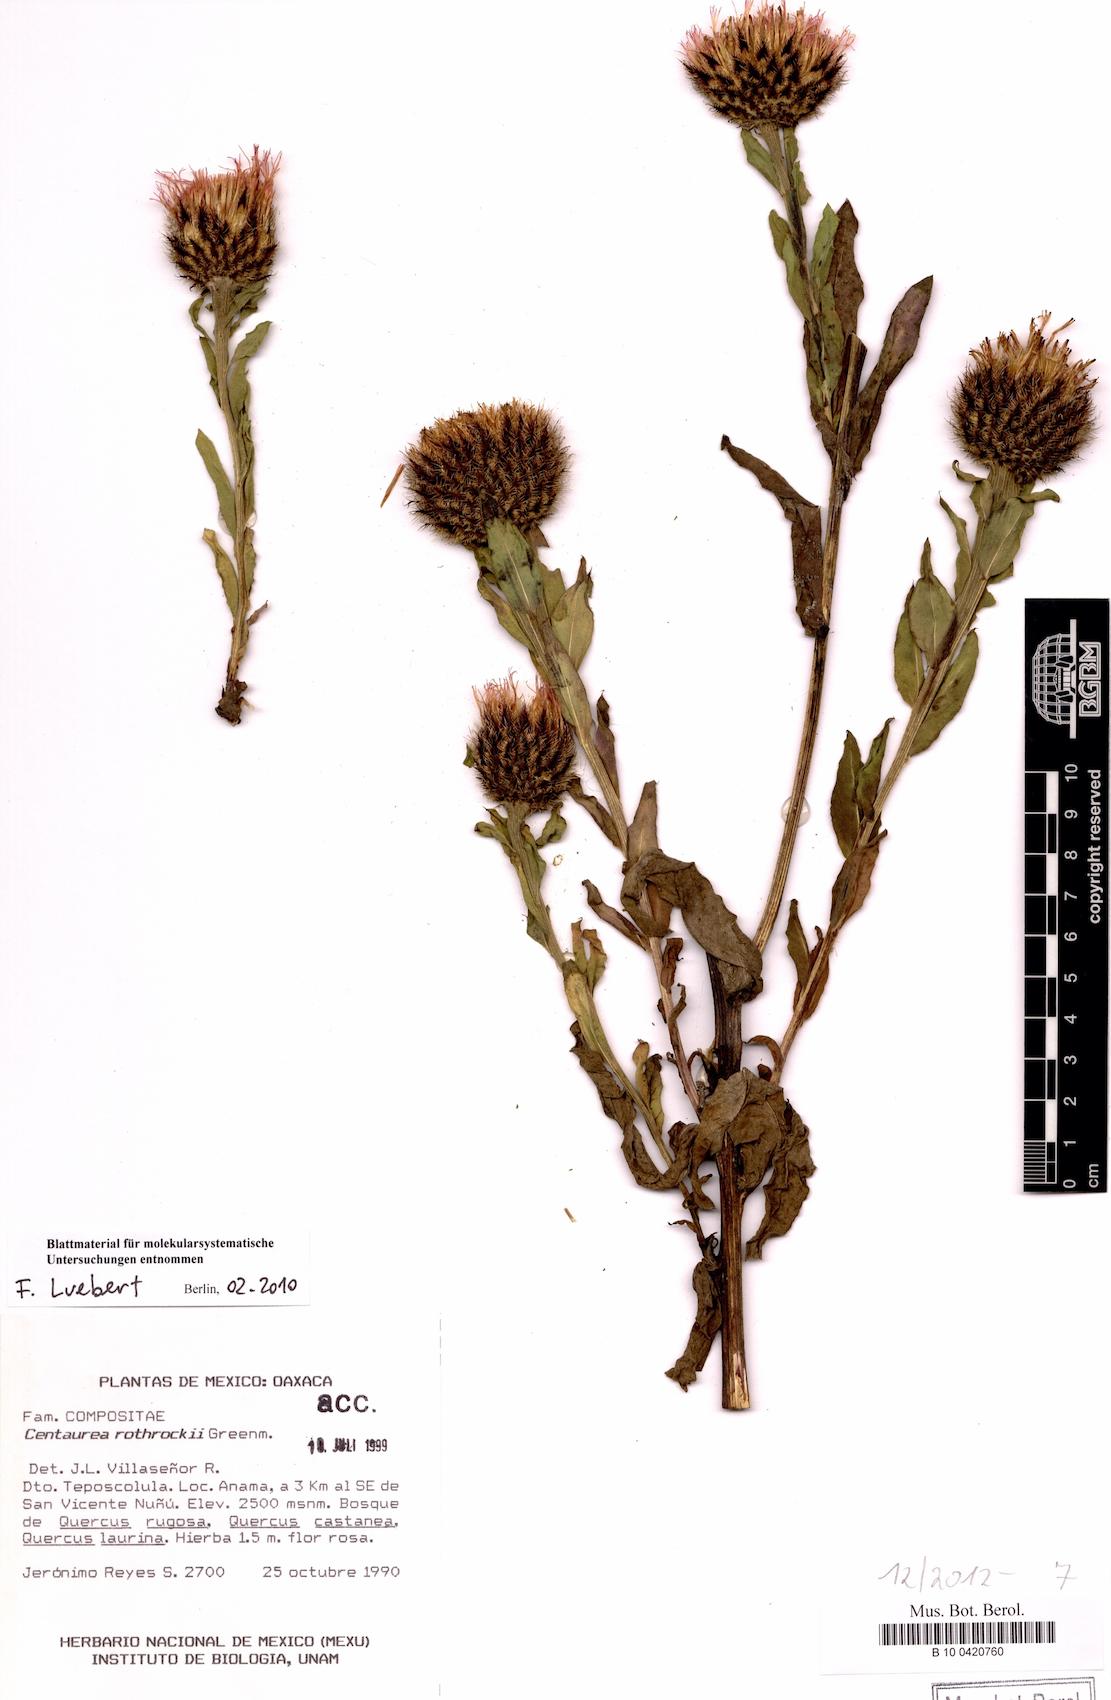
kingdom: Plantae
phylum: Tracheophyta
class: Magnoliopsida
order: Asterales
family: Asteraceae
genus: Plectocephalus
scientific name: Plectocephalus rothrockii
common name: Mexican basketflower
